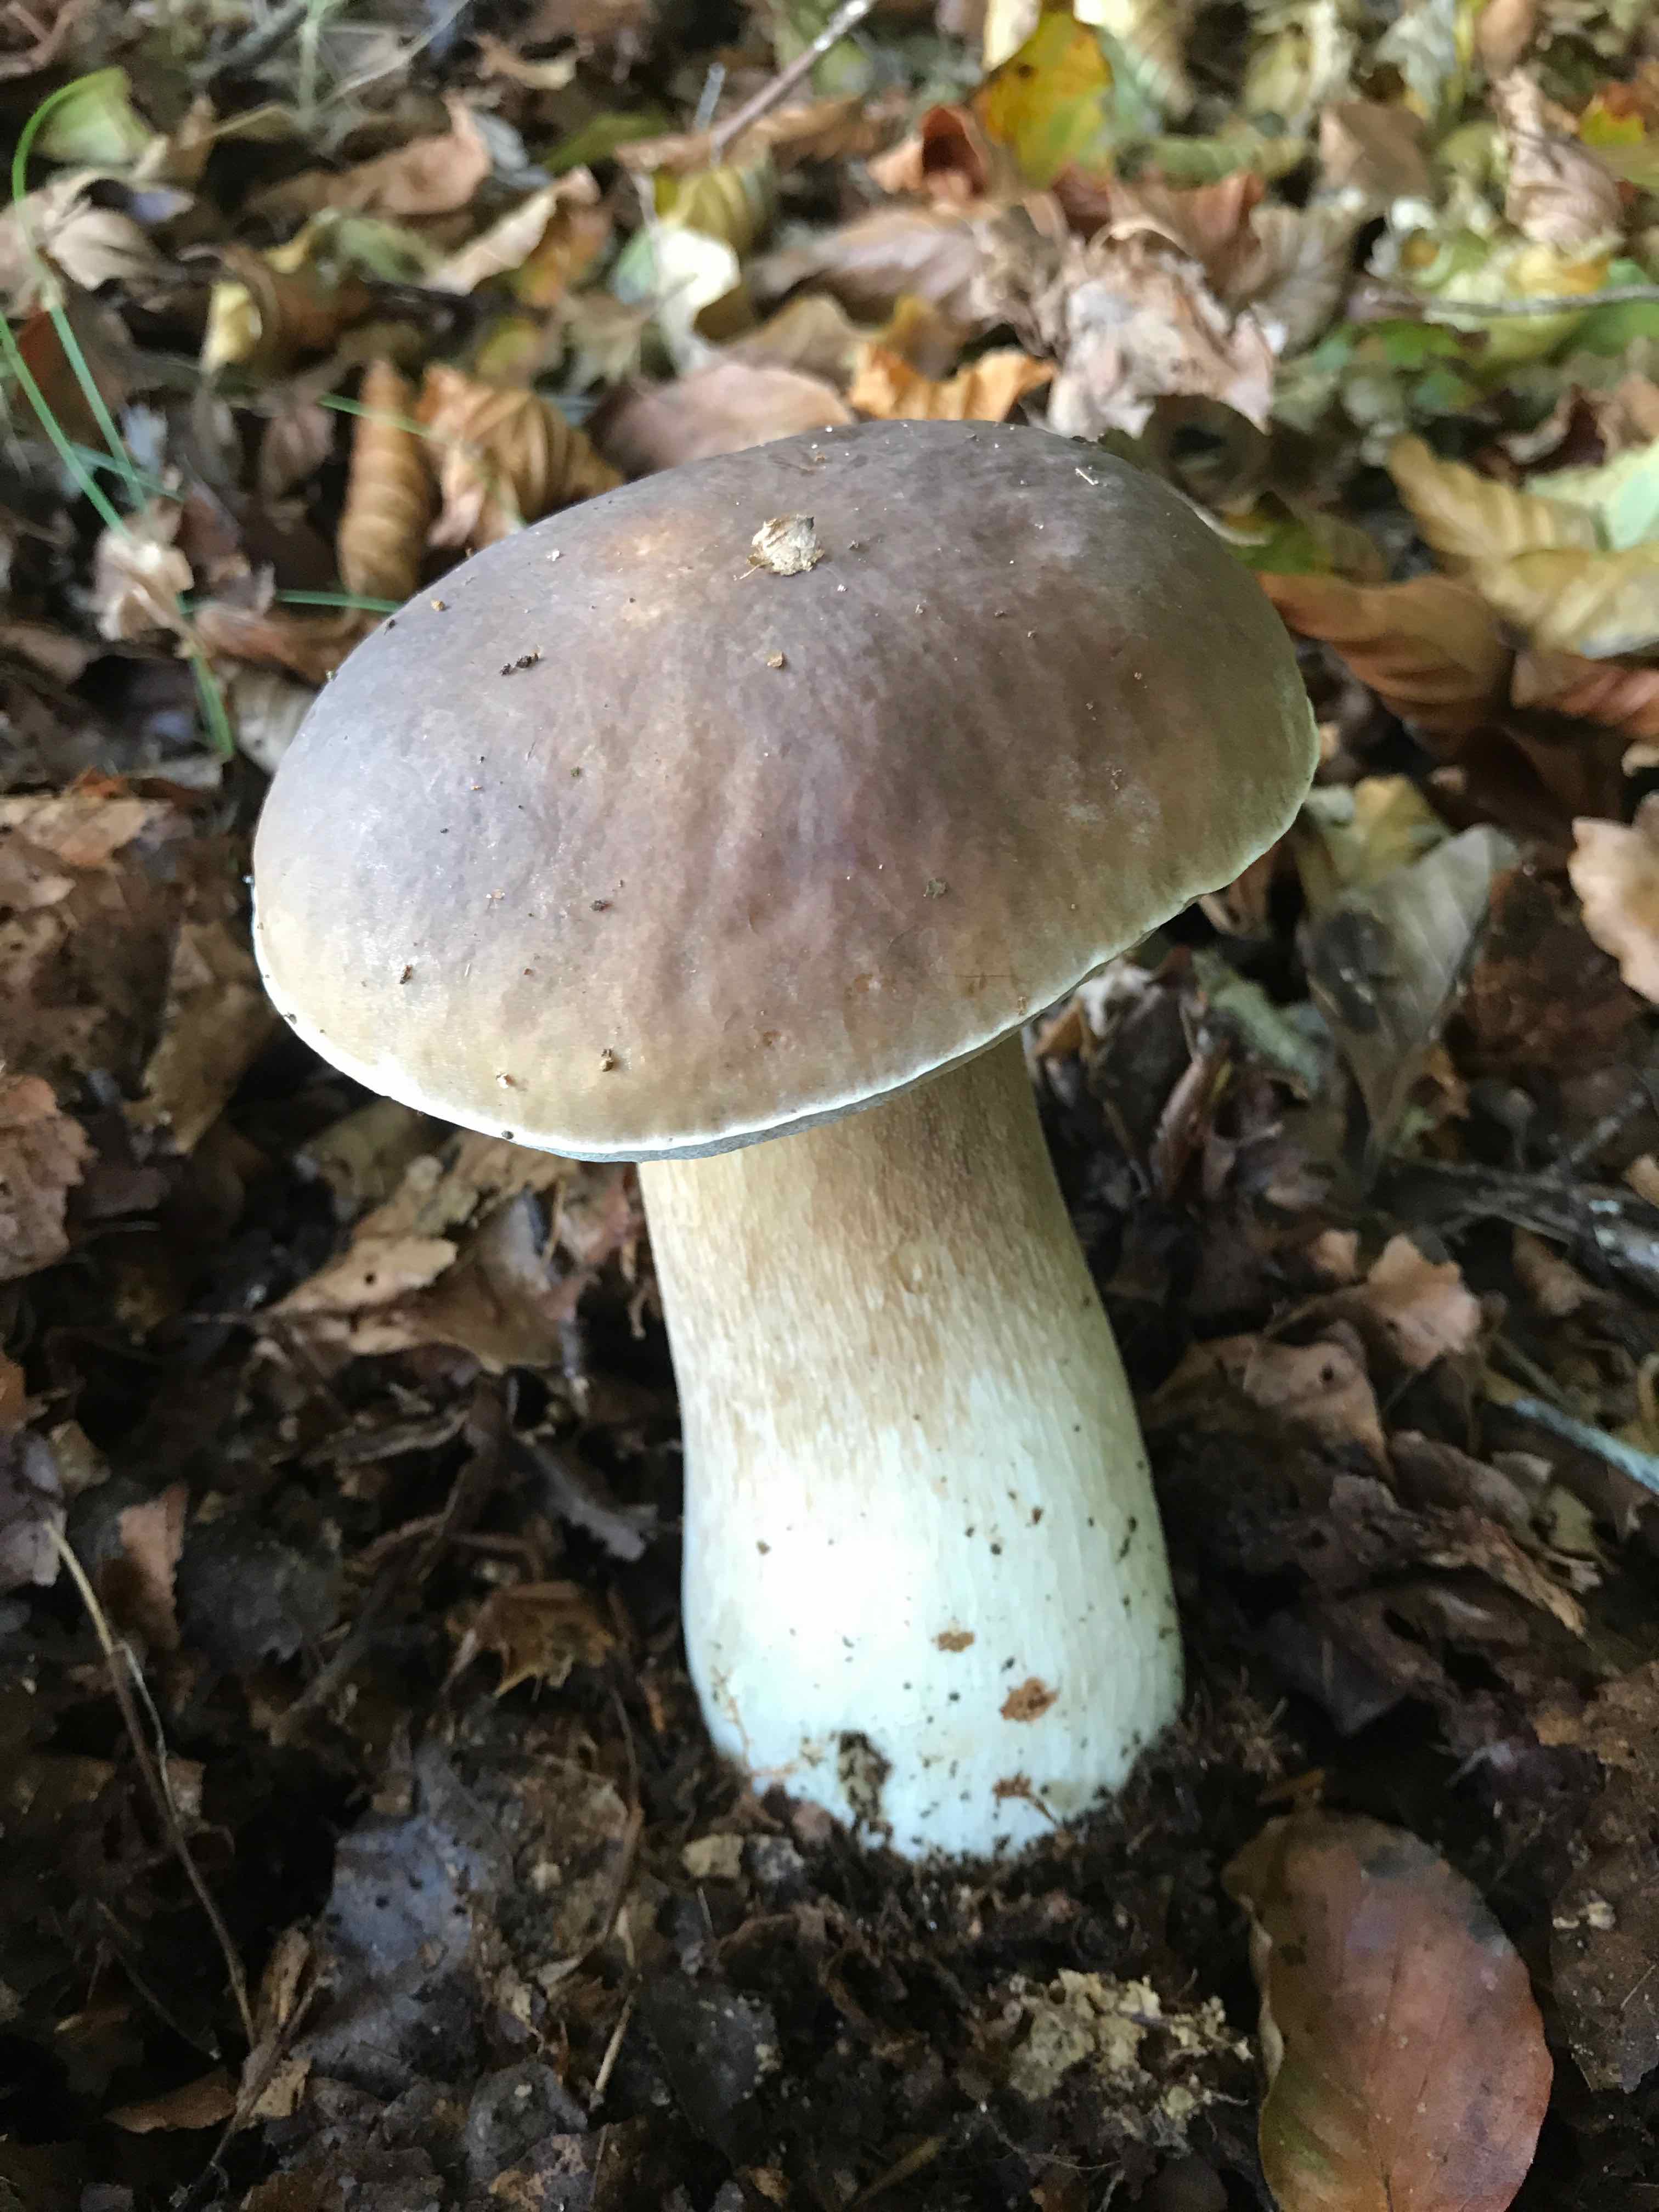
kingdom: Fungi
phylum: Basidiomycota
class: Agaricomycetes
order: Boletales
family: Boletaceae
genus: Boletus
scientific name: Boletus edulis
